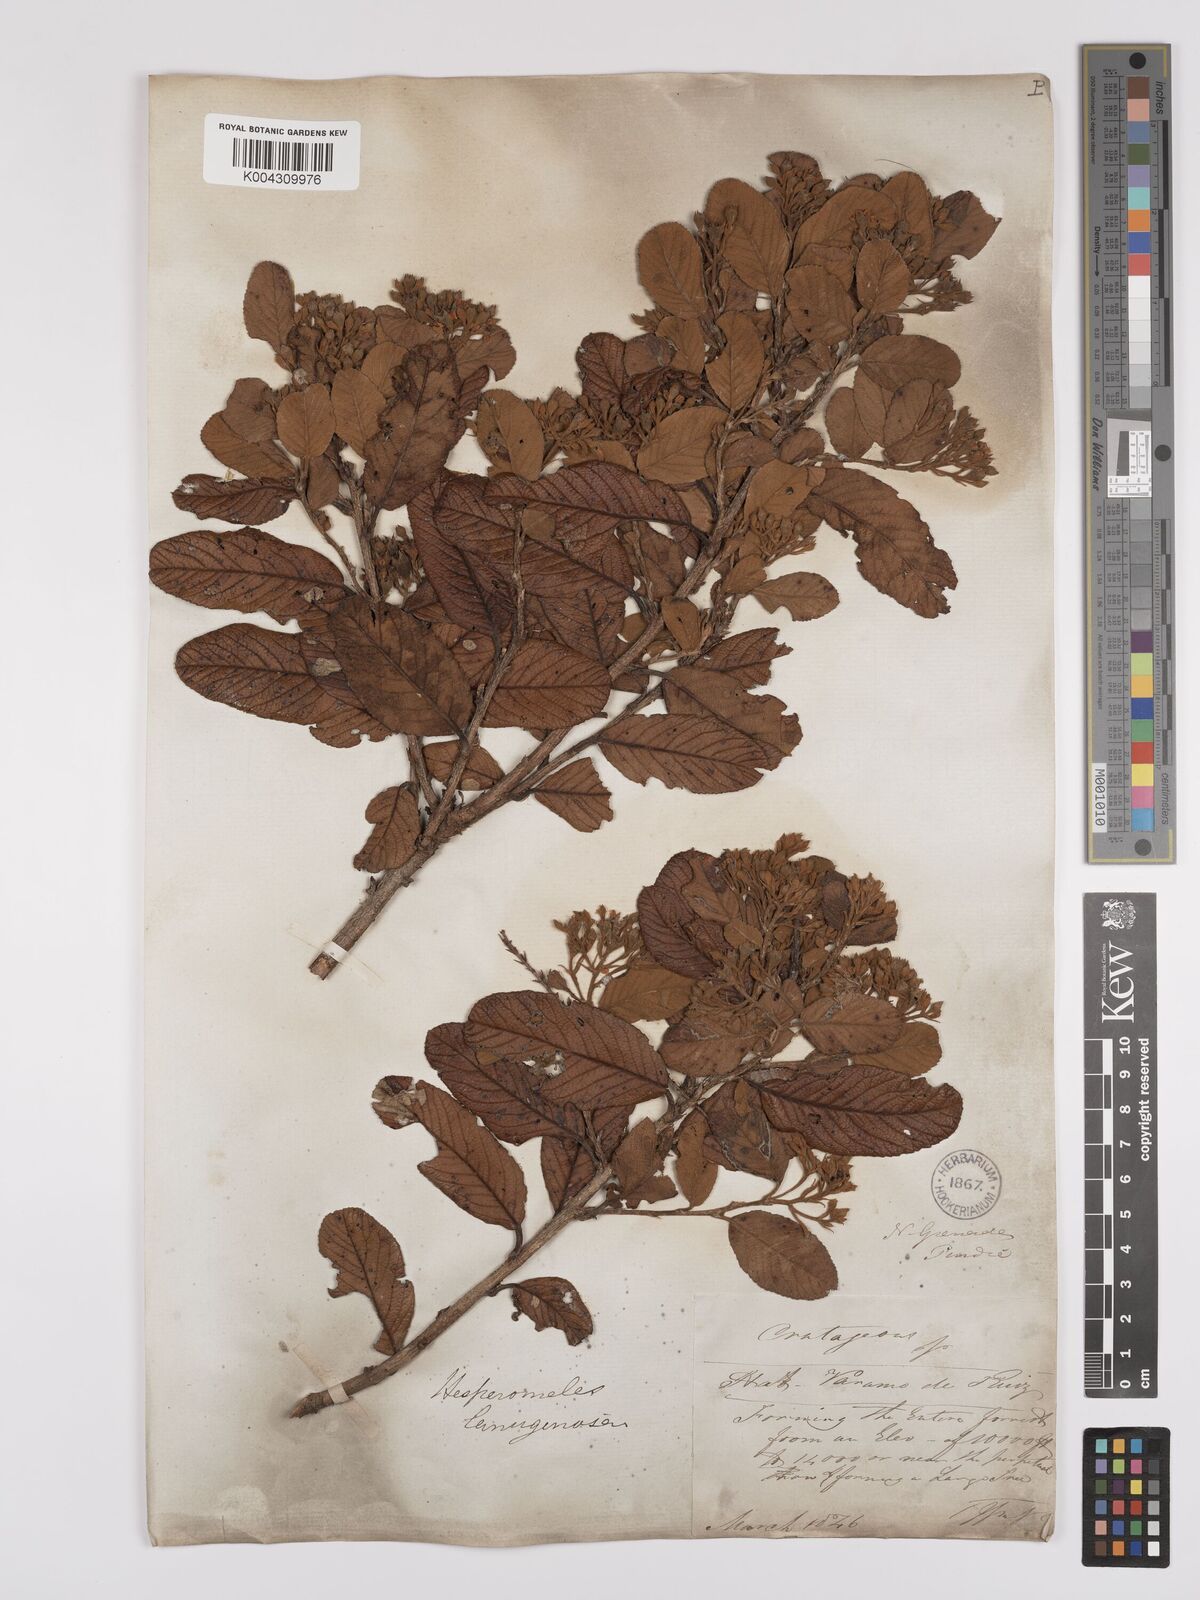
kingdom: Plantae
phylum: Tracheophyta
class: Magnoliopsida
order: Rosales
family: Rosaceae
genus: Hesperomeles
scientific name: Hesperomeles ferruginea
